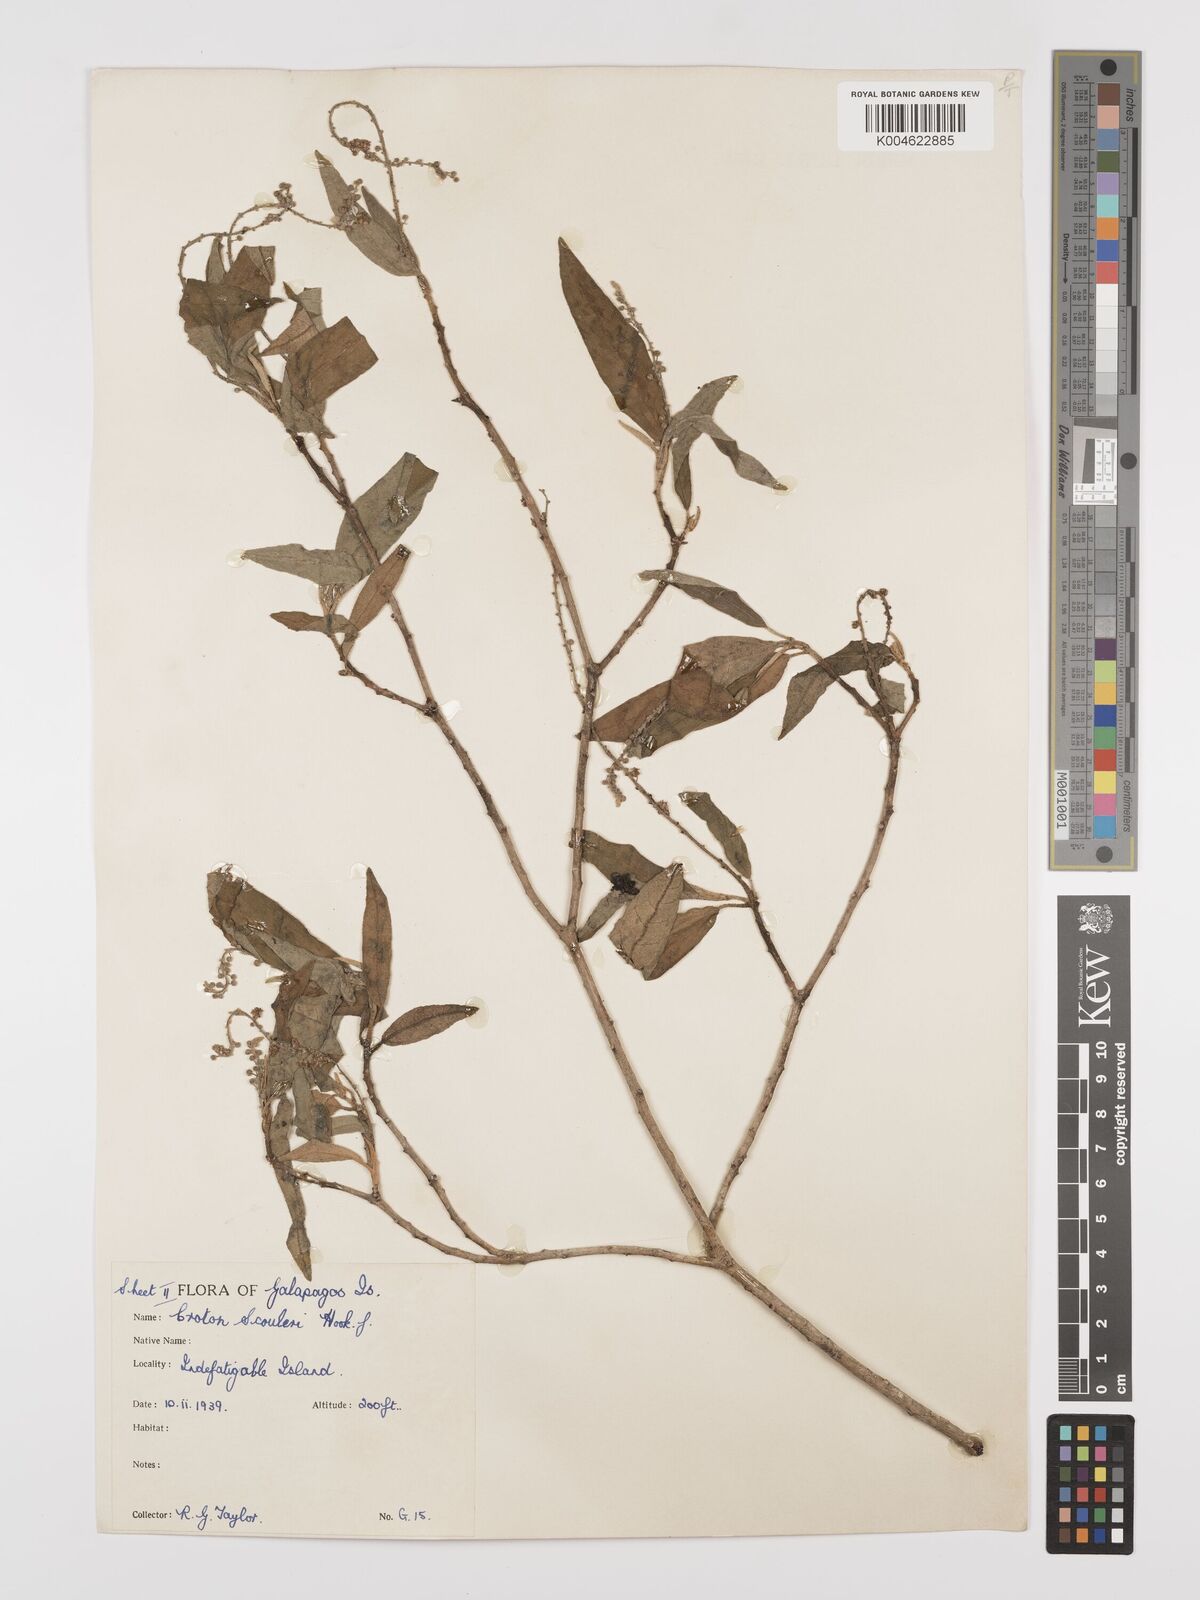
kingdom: Plantae
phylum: Tracheophyta
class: Magnoliopsida
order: Malpighiales
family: Euphorbiaceae
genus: Croton
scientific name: Croton scouleri
